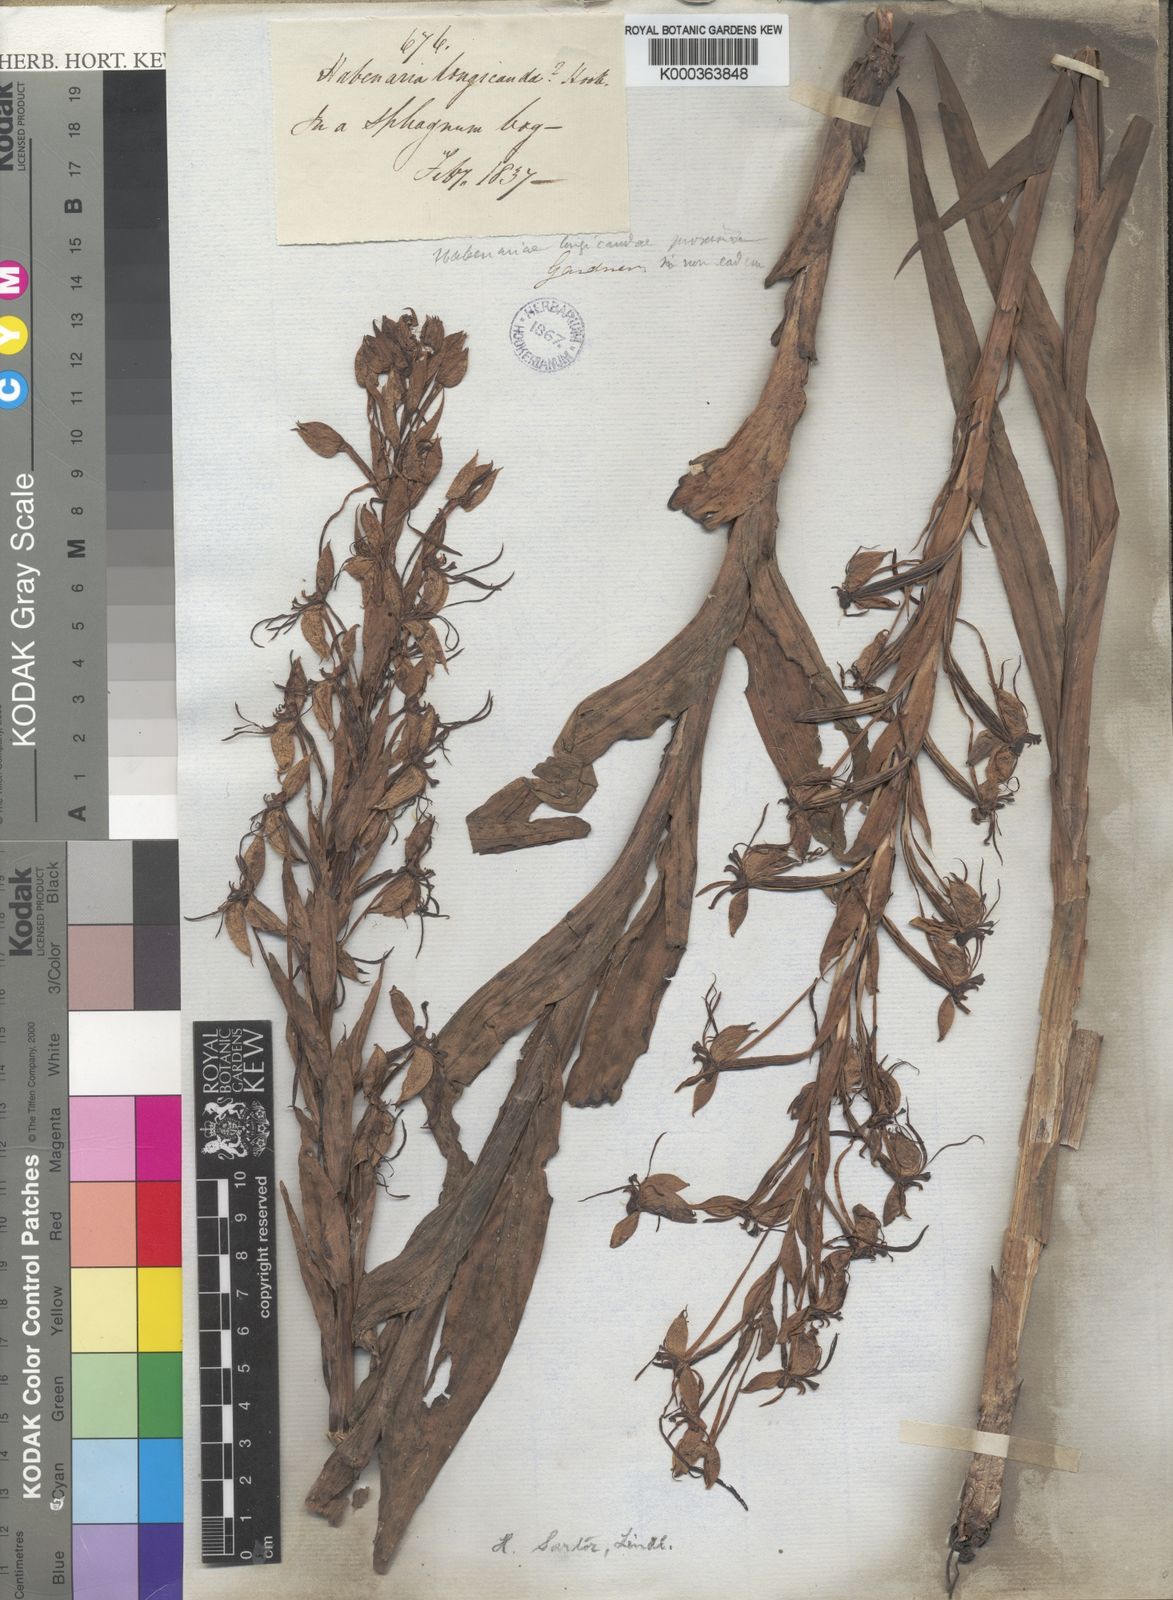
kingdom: Plantae
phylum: Tracheophyta
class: Liliopsida
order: Asparagales
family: Orchidaceae
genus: Habenaria
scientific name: Habenaria sartor
